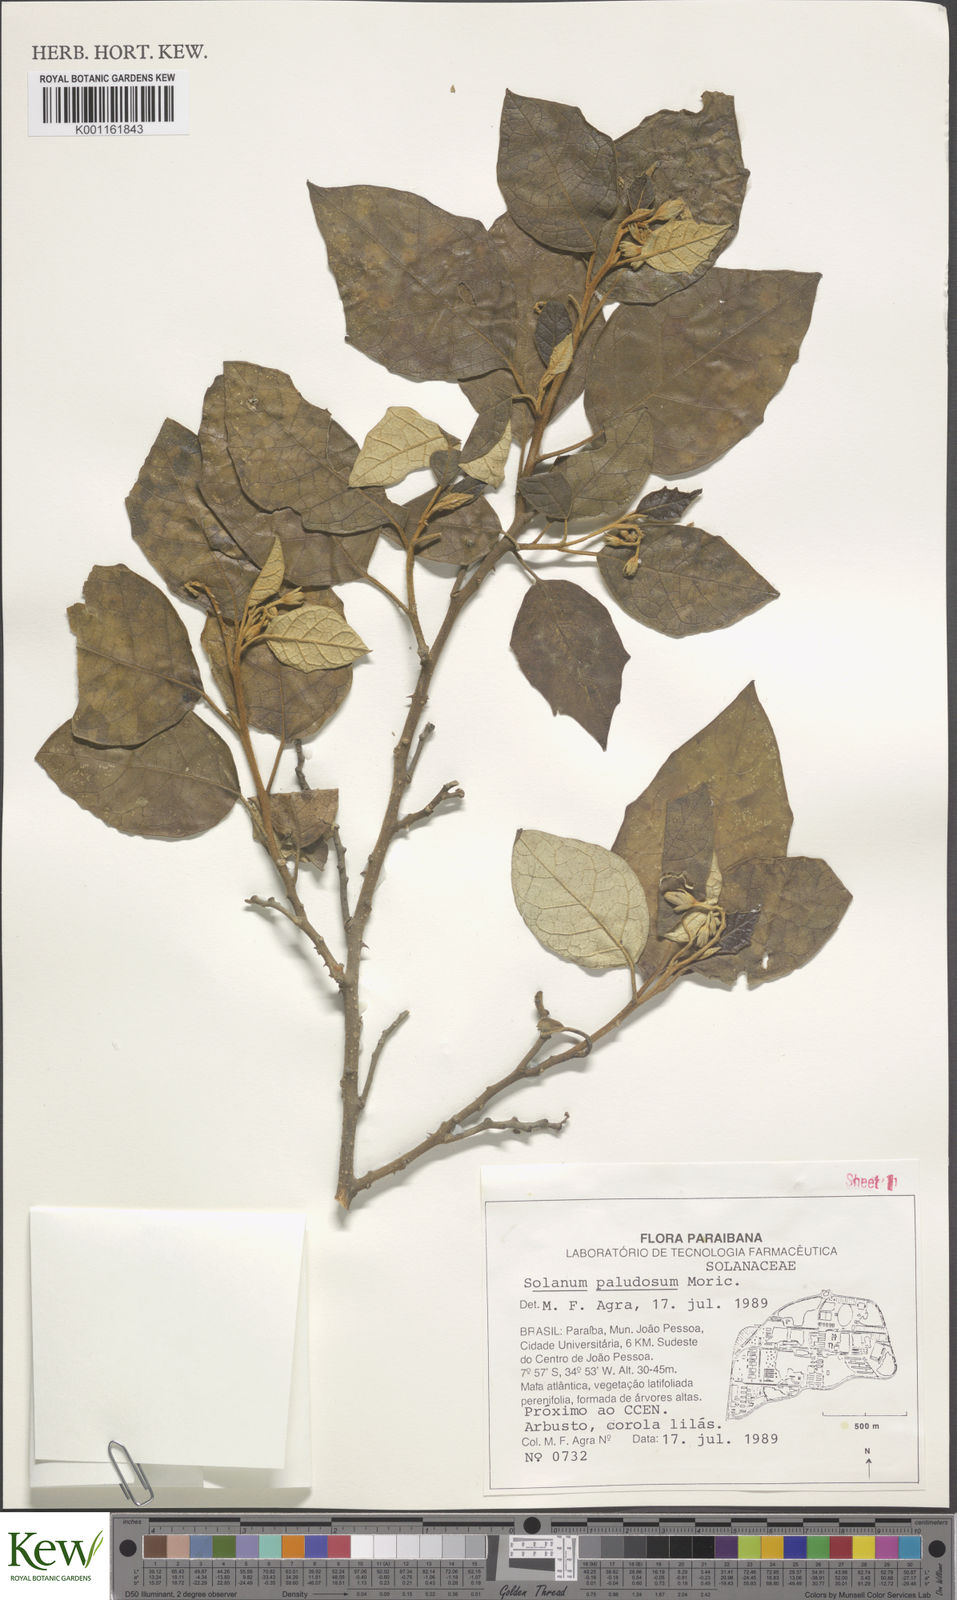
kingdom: Plantae
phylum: Tracheophyta
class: Magnoliopsida
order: Solanales
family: Solanaceae
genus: Solanum
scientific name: Solanum paludosum
